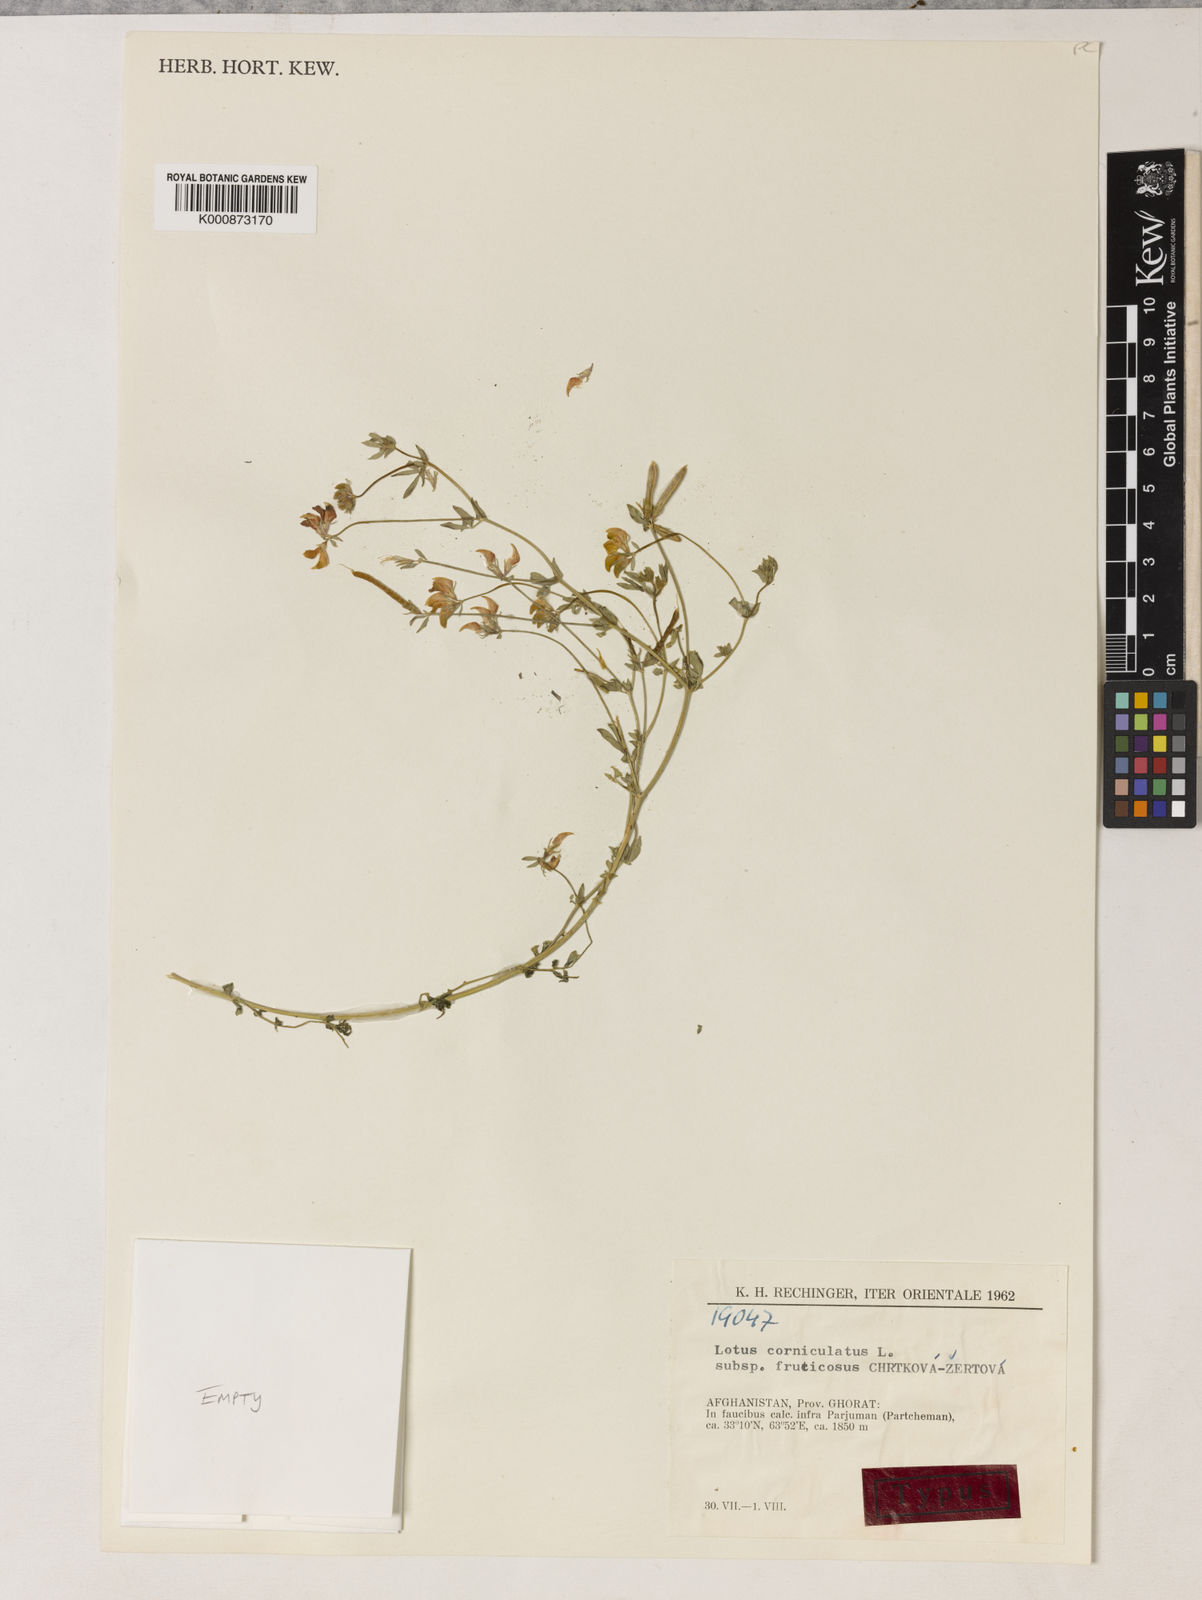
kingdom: Plantae
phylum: Tracheophyta
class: Magnoliopsida
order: Fabales
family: Fabaceae
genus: Lotus
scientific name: Lotus corniculatus
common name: Common bird's-foot-trefoil
